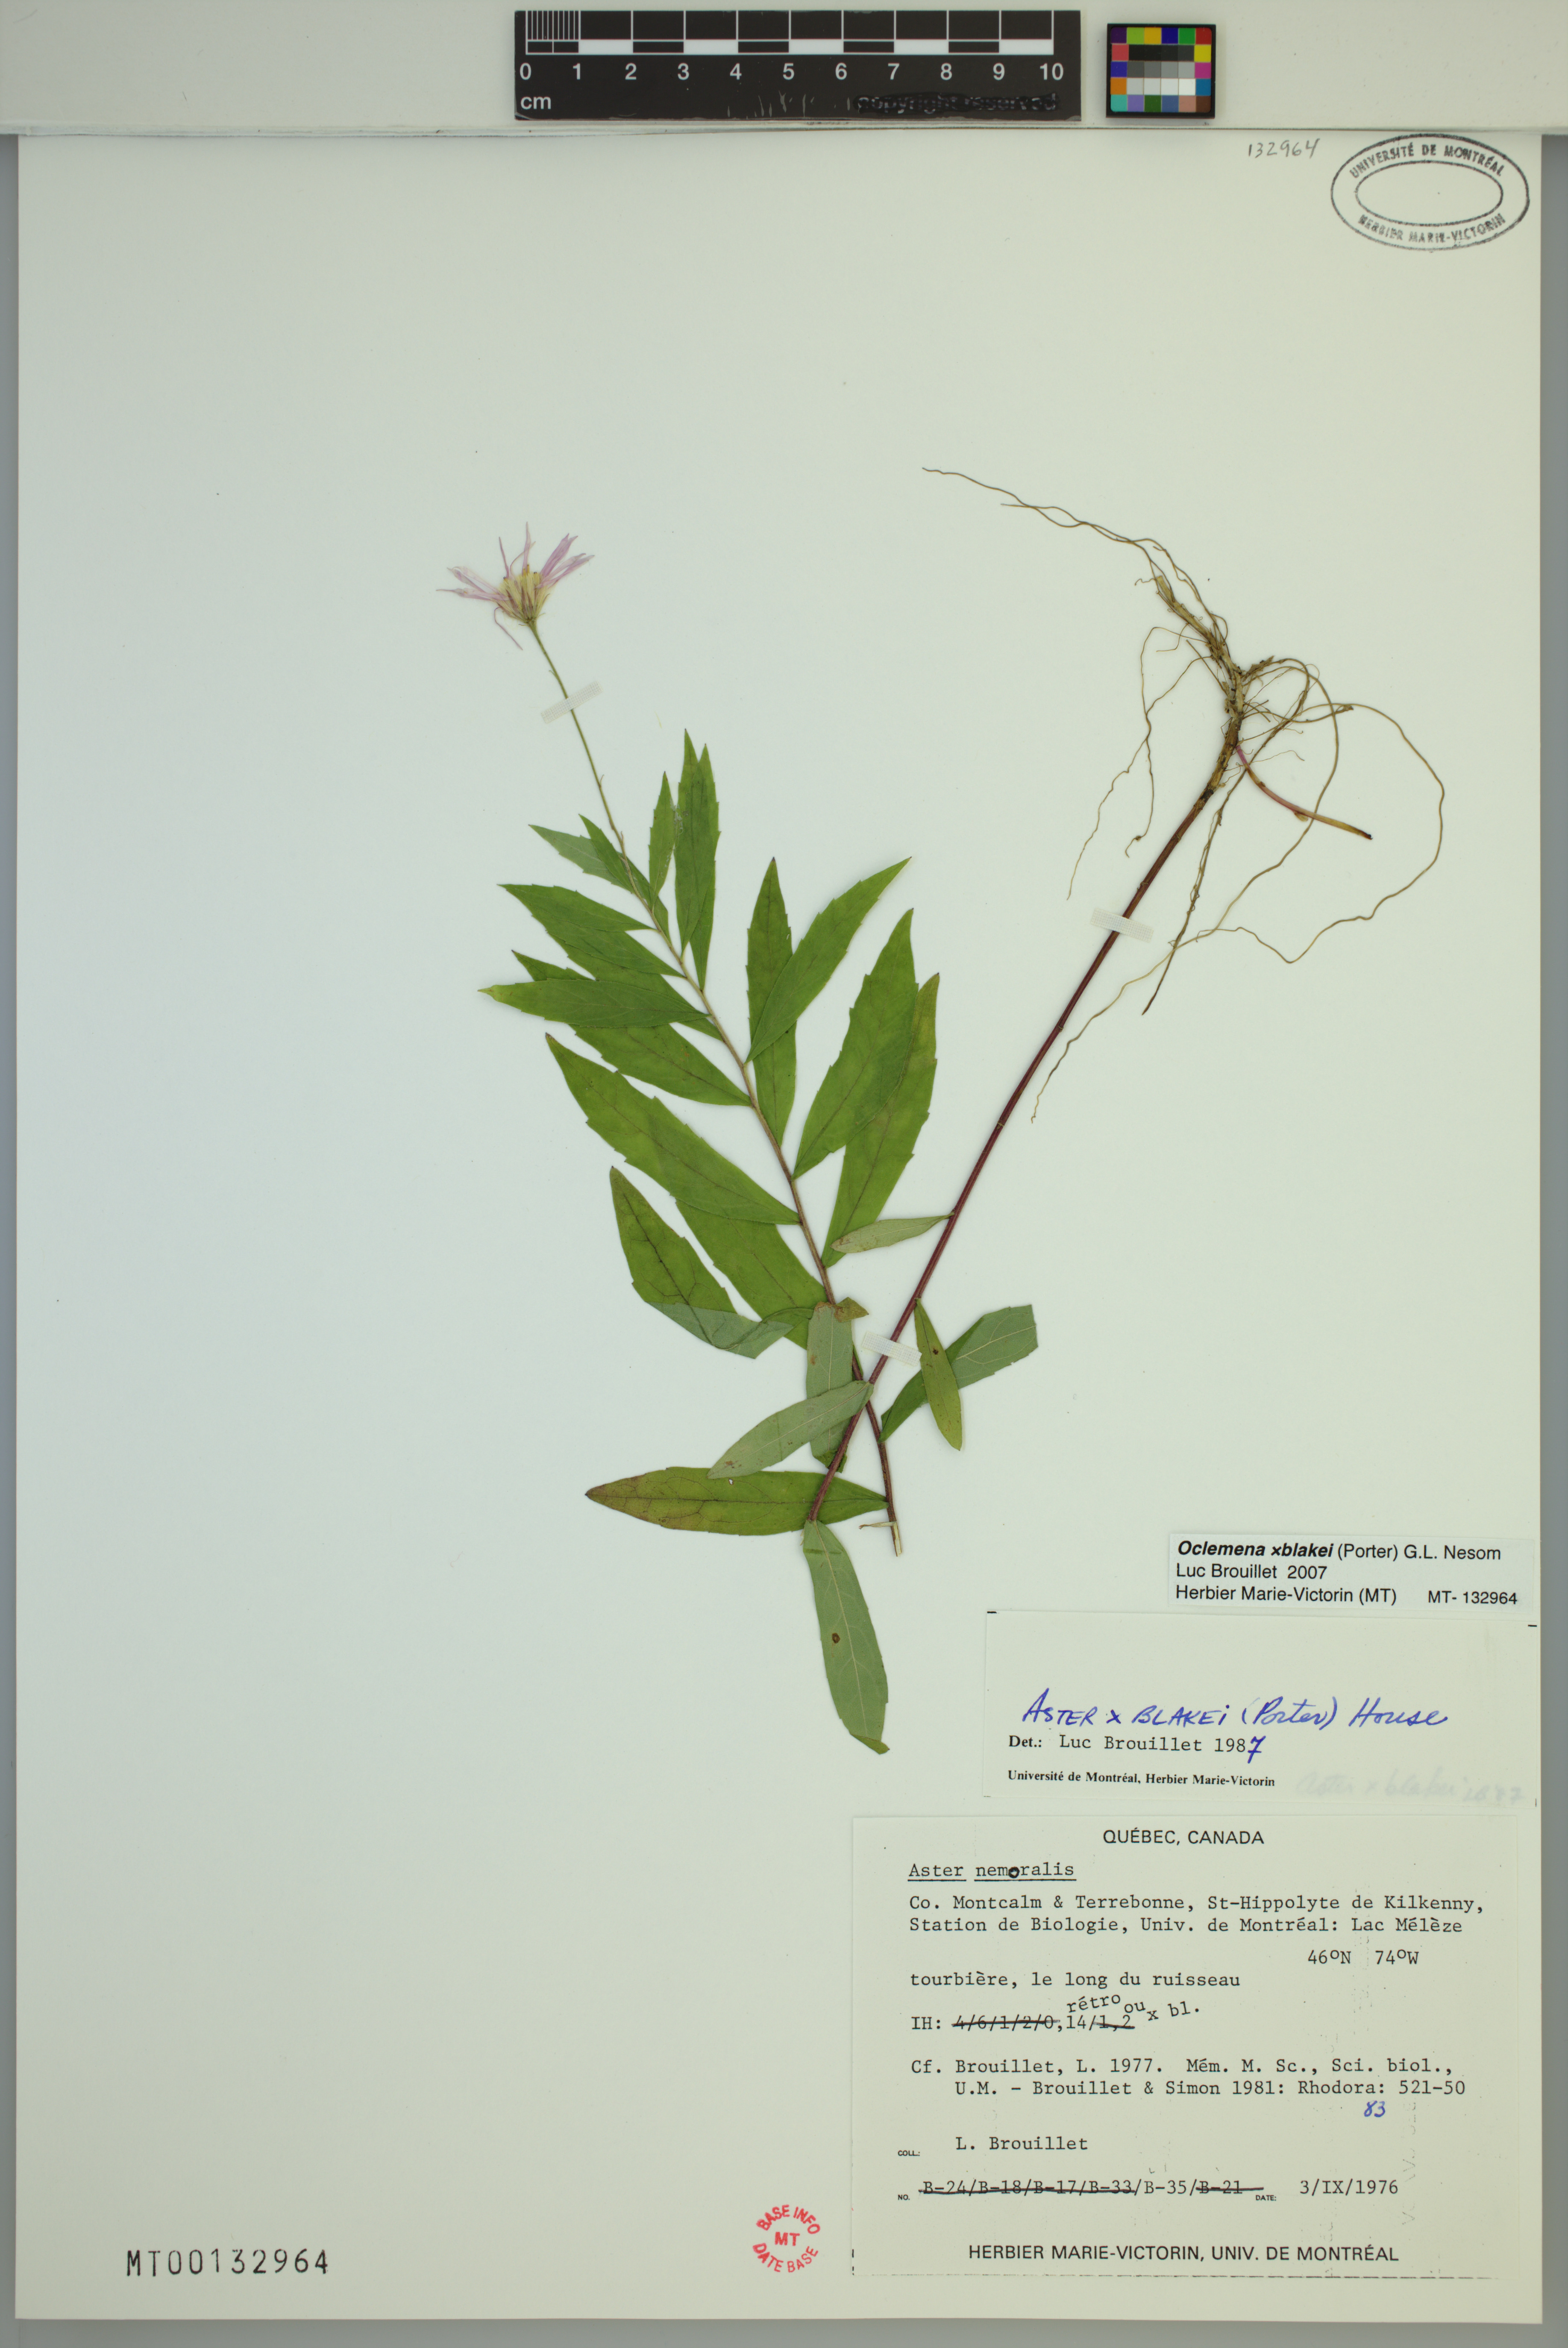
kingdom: Plantae
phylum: Tracheophyta
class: Magnoliopsida
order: Asterales
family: Asteraceae
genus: Oclemena
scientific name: Oclemena blakei
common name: Blake's aster
